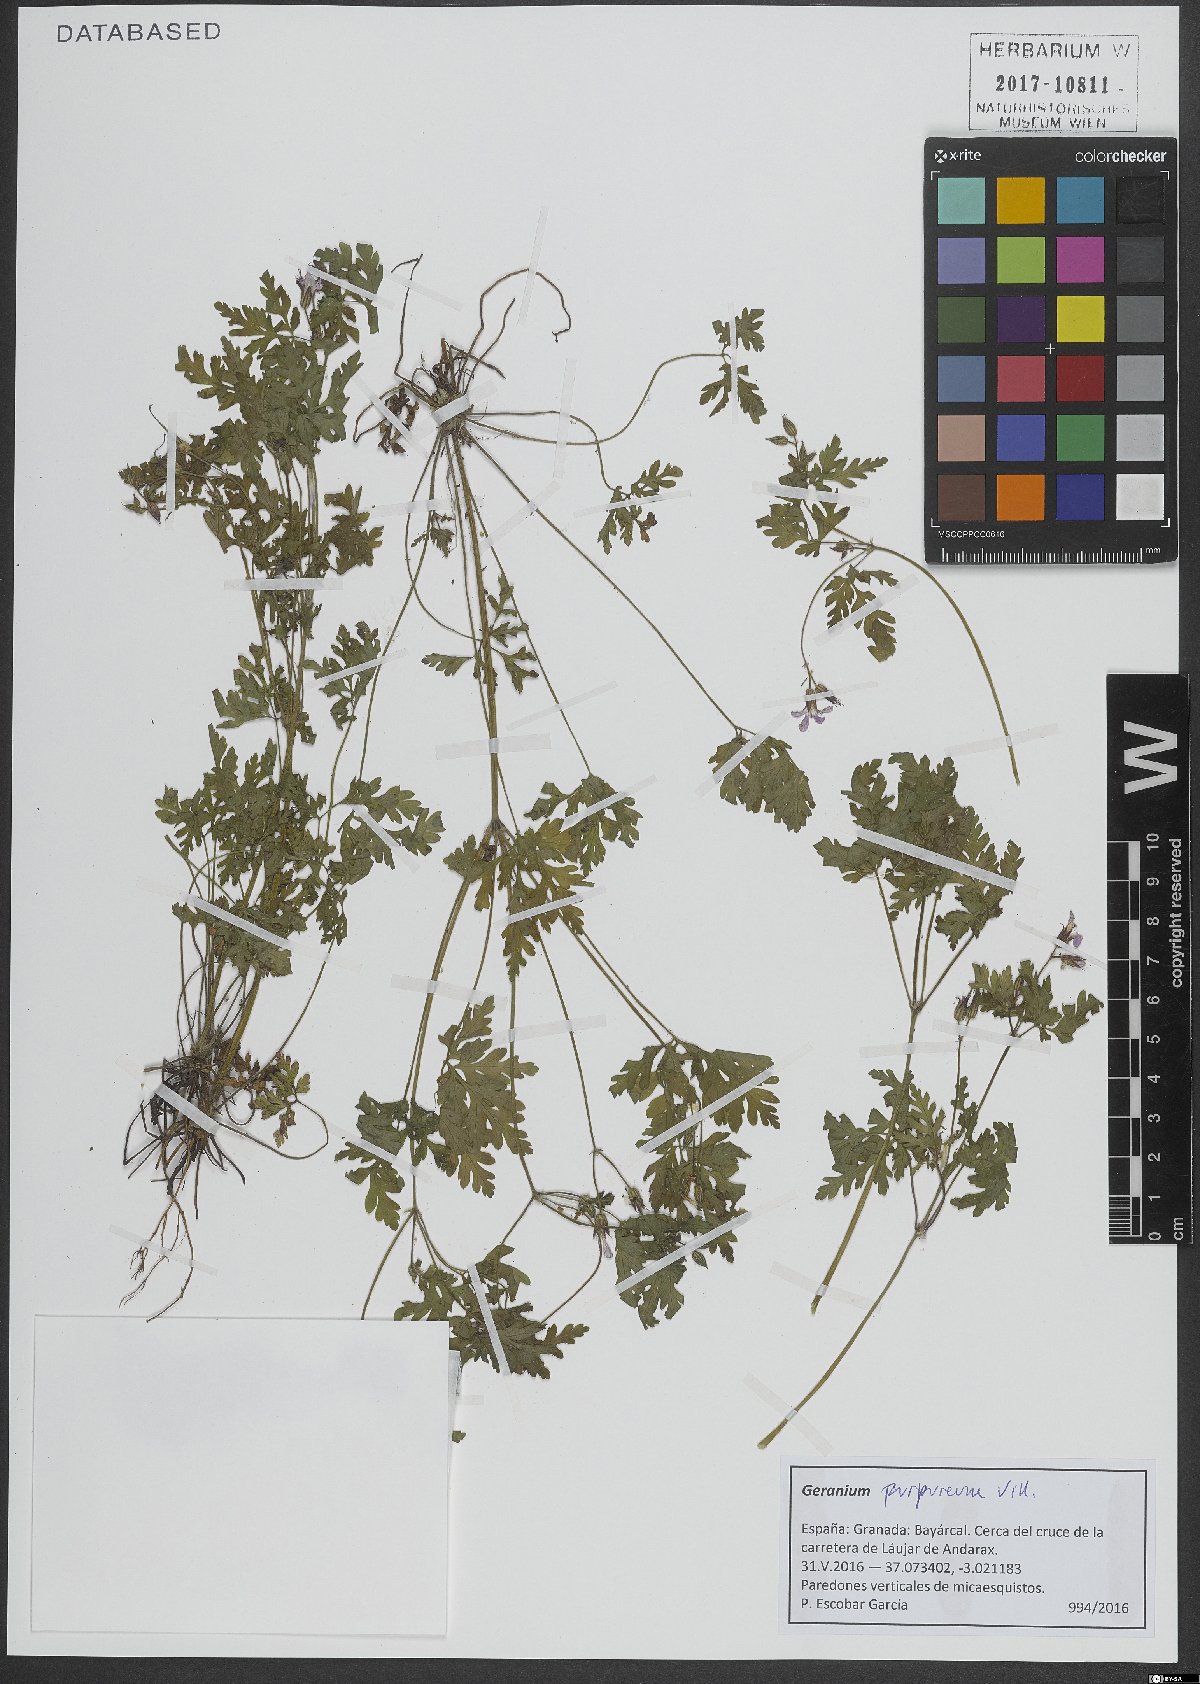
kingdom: Plantae
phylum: Tracheophyta
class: Magnoliopsida
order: Geraniales
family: Geraniaceae
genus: Geranium
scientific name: Geranium purpureum
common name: Little-robin
